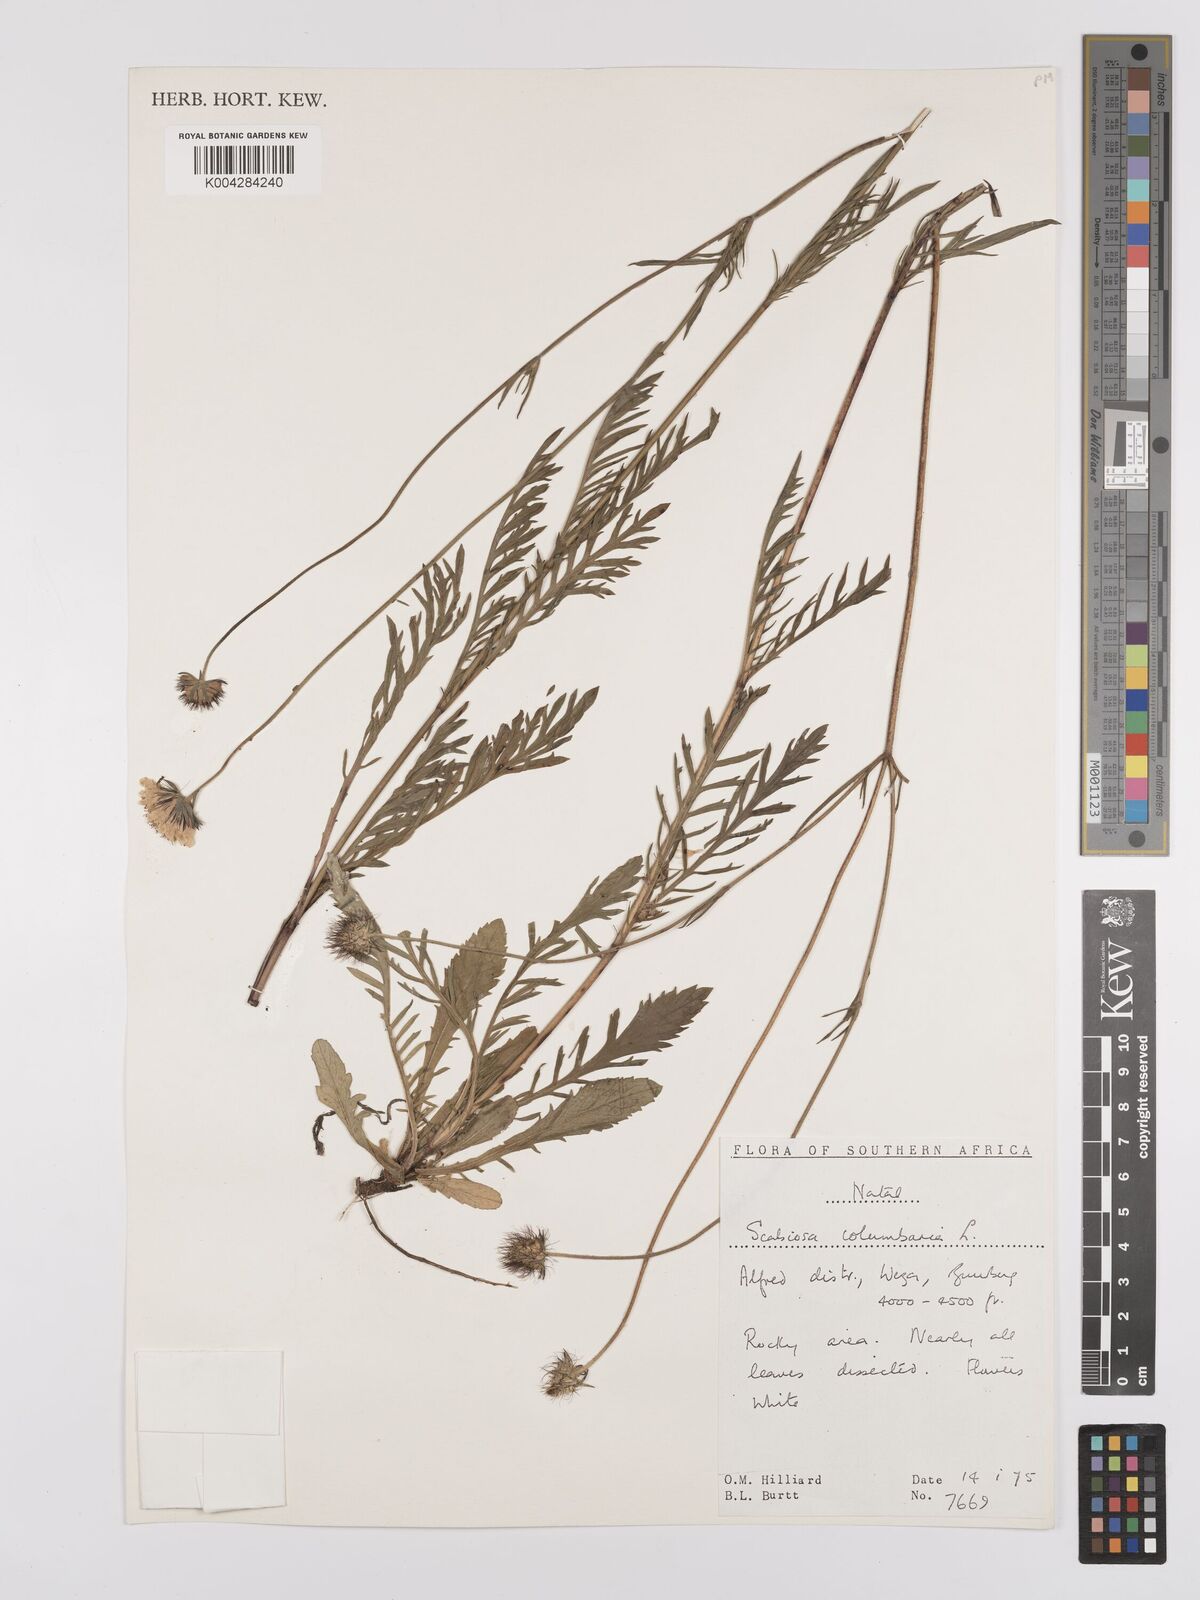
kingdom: Plantae
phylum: Tracheophyta
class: Magnoliopsida
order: Dipsacales
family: Caprifoliaceae
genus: Scabiosa
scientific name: Scabiosa columbaria
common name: Small scabious
